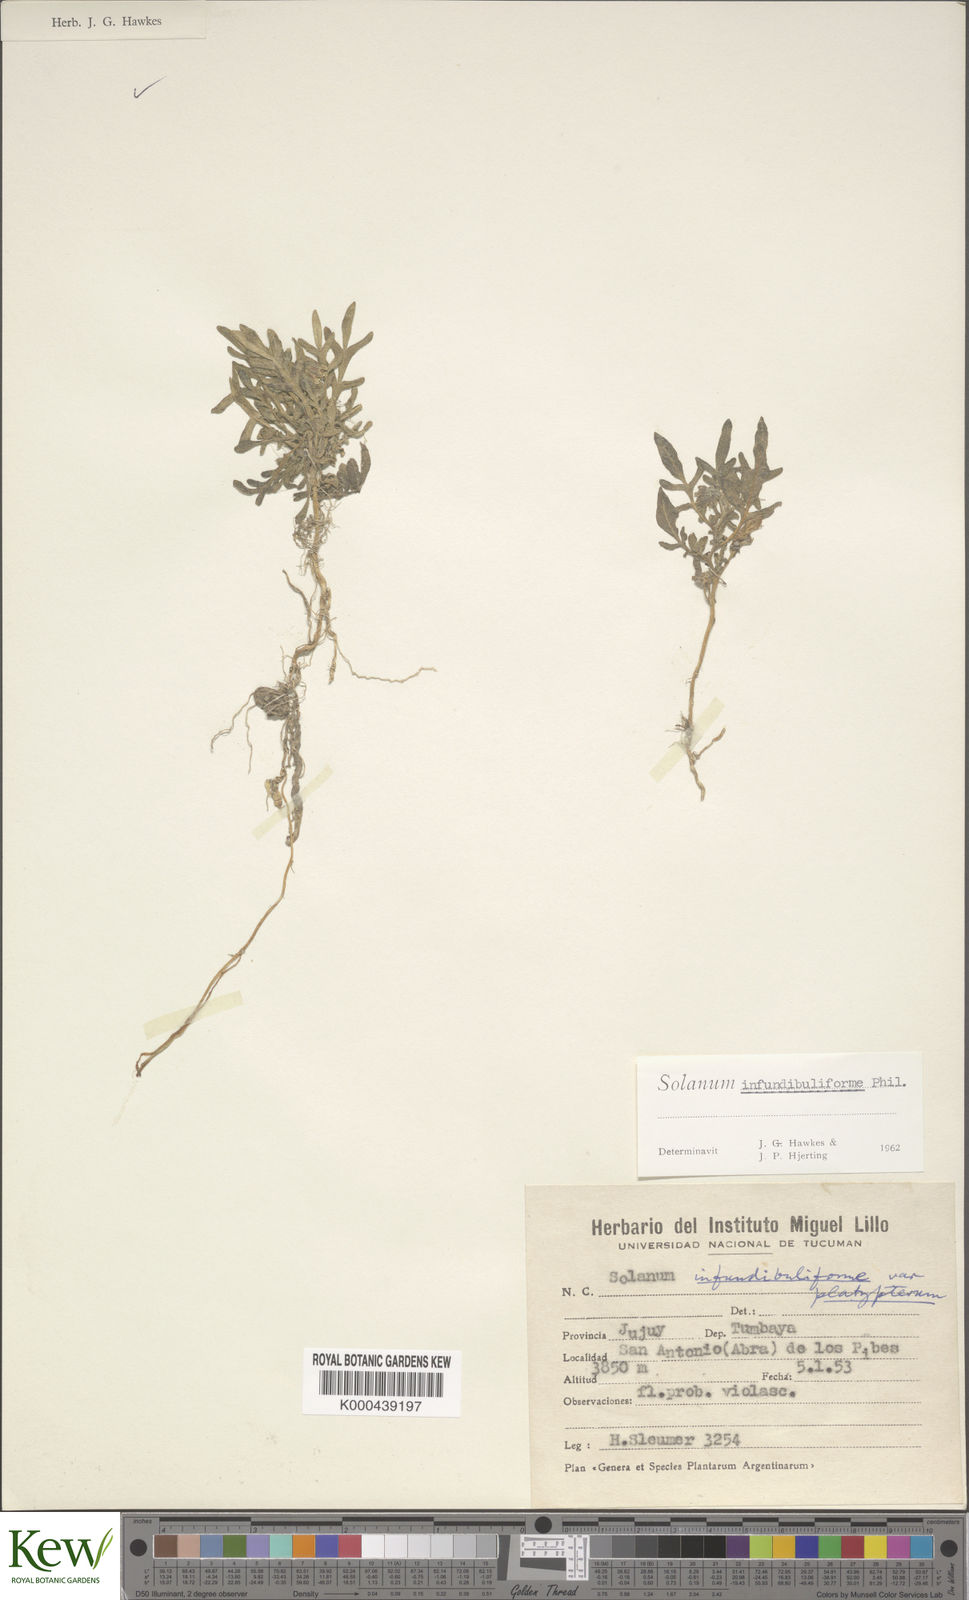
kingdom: Plantae
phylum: Tracheophyta
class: Magnoliopsida
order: Solanales
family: Solanaceae
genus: Solanum
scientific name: Solanum infundibuliforme
